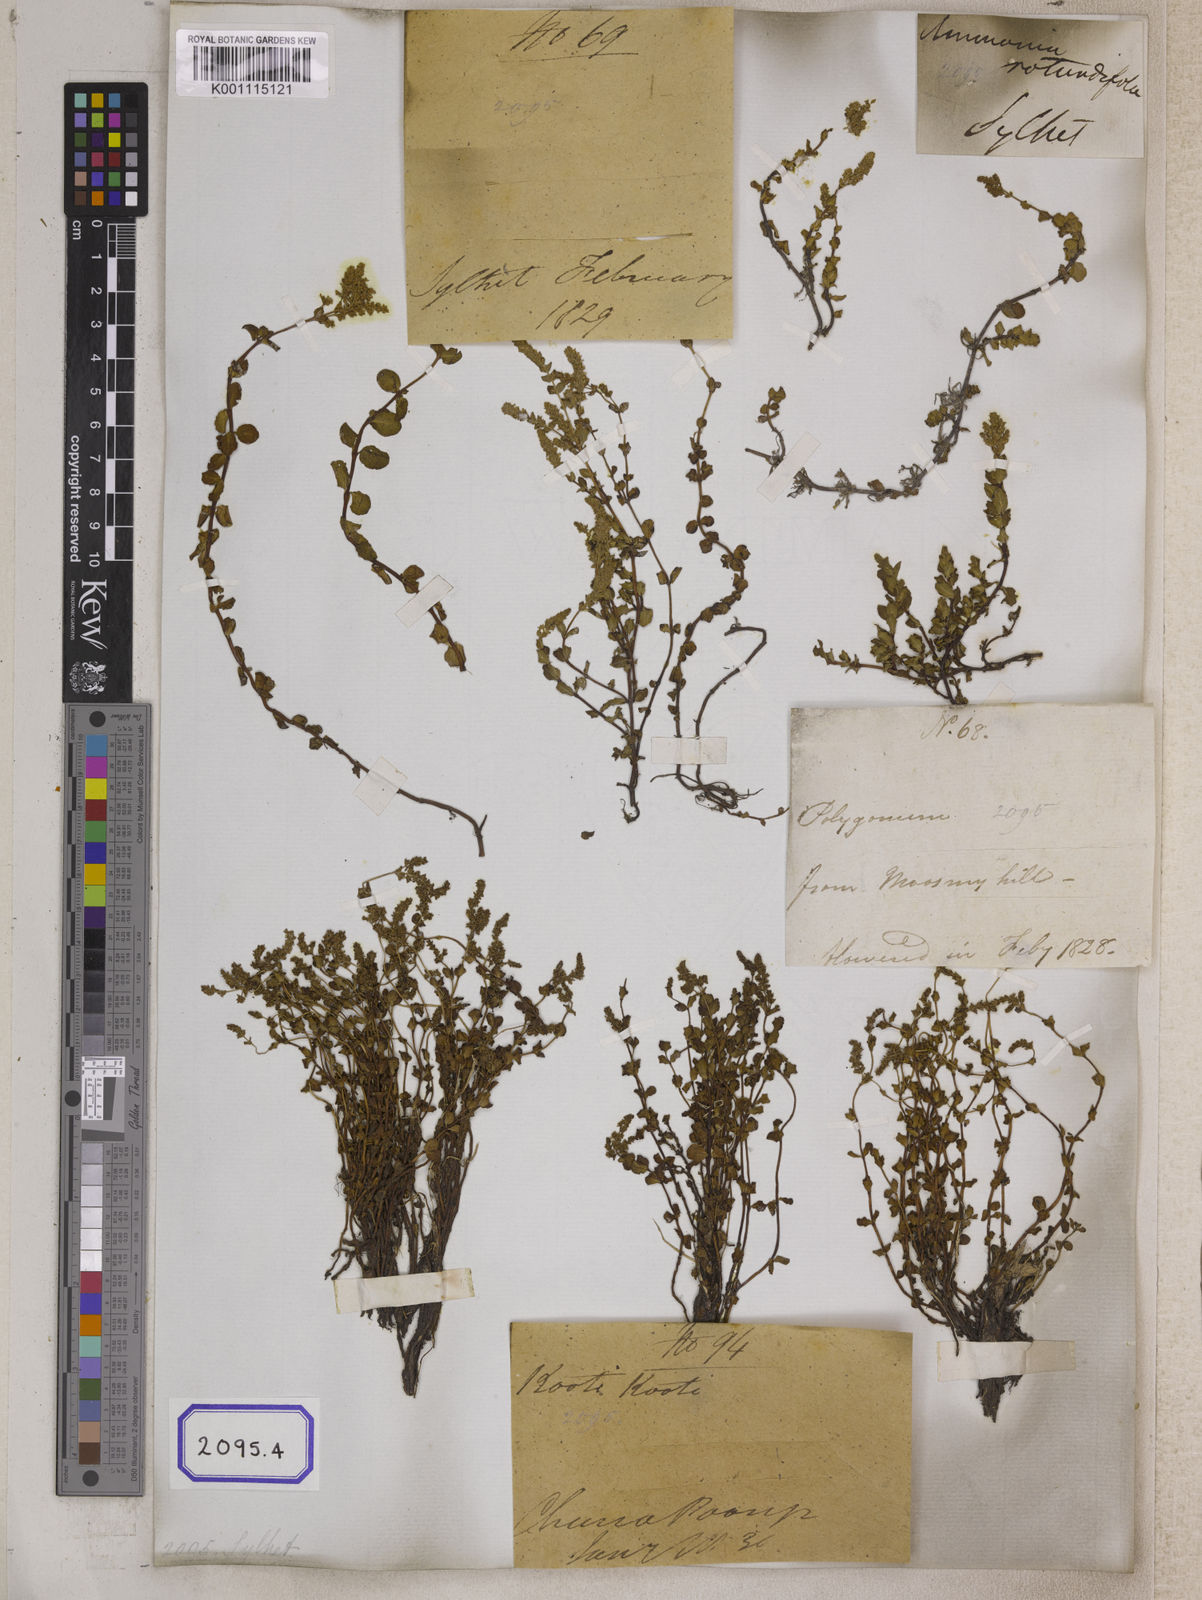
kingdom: Plantae
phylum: Tracheophyta
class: Magnoliopsida
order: Myrtales
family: Lythraceae
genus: Ammannia
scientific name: Ammannia
